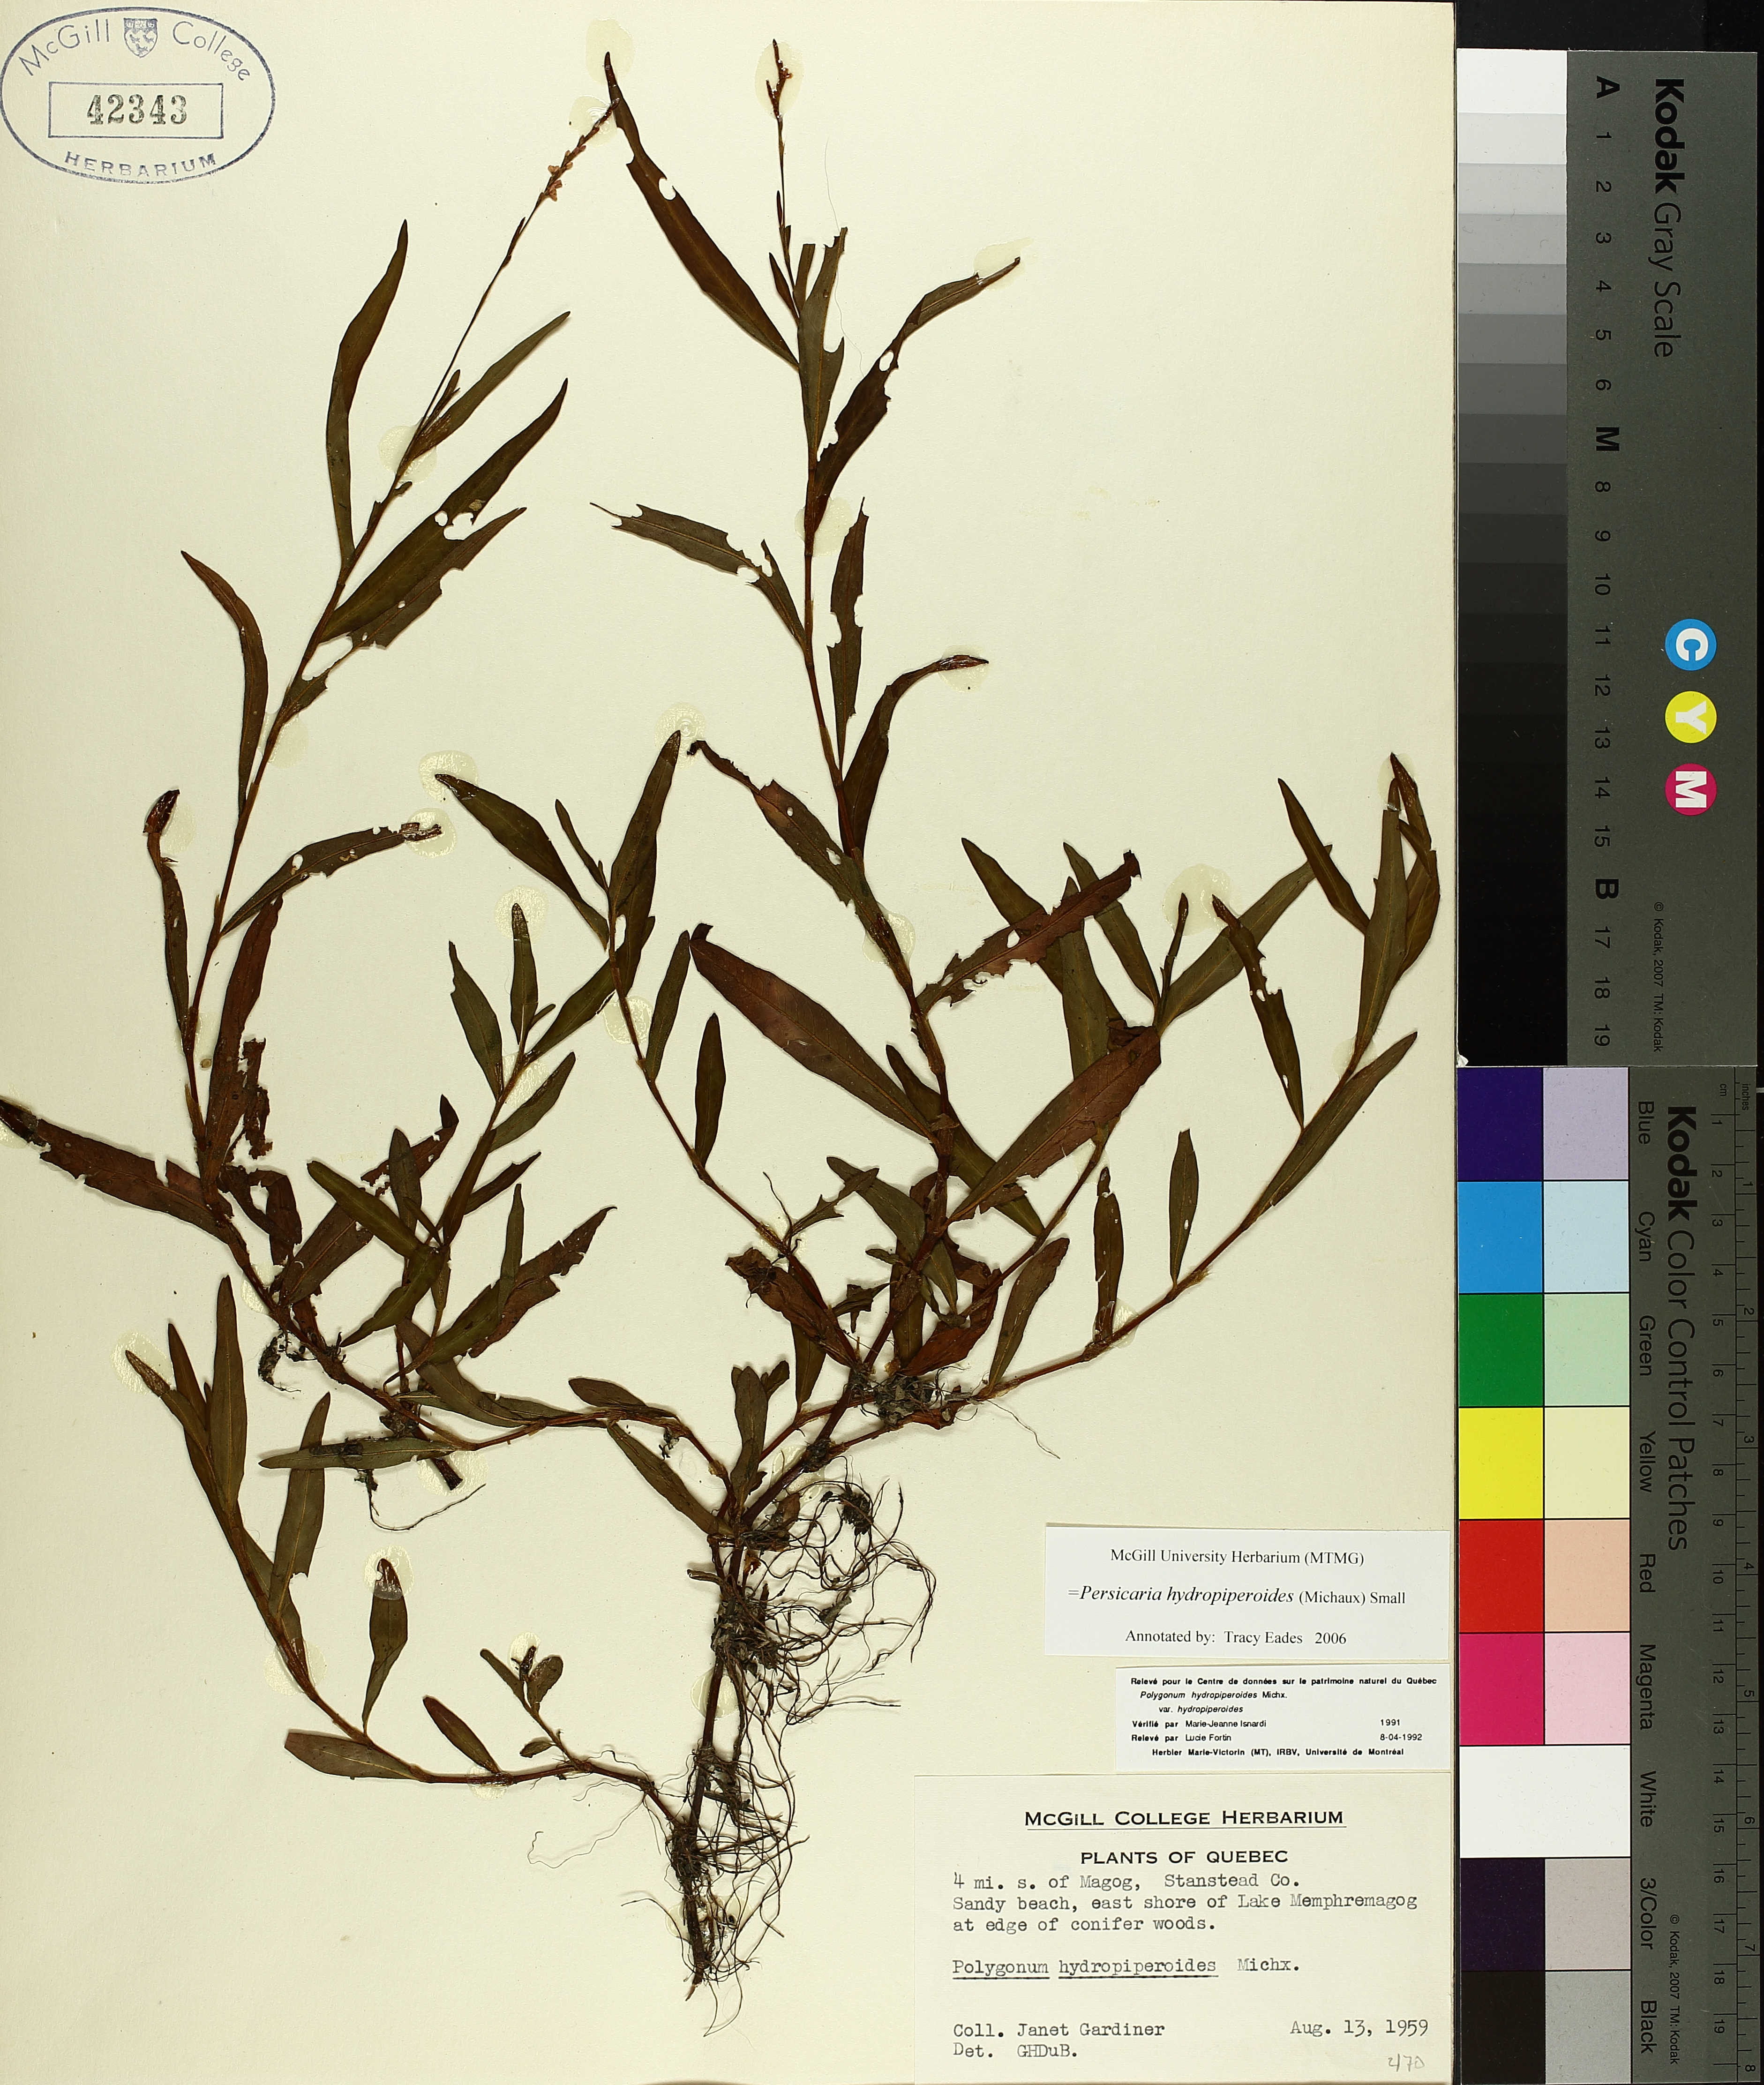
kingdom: Plantae
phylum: Tracheophyta
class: Magnoliopsida
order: Caryophyllales
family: Polygonaceae
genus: Persicaria
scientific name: Persicaria hydropiperoides
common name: Swamp smartweed
